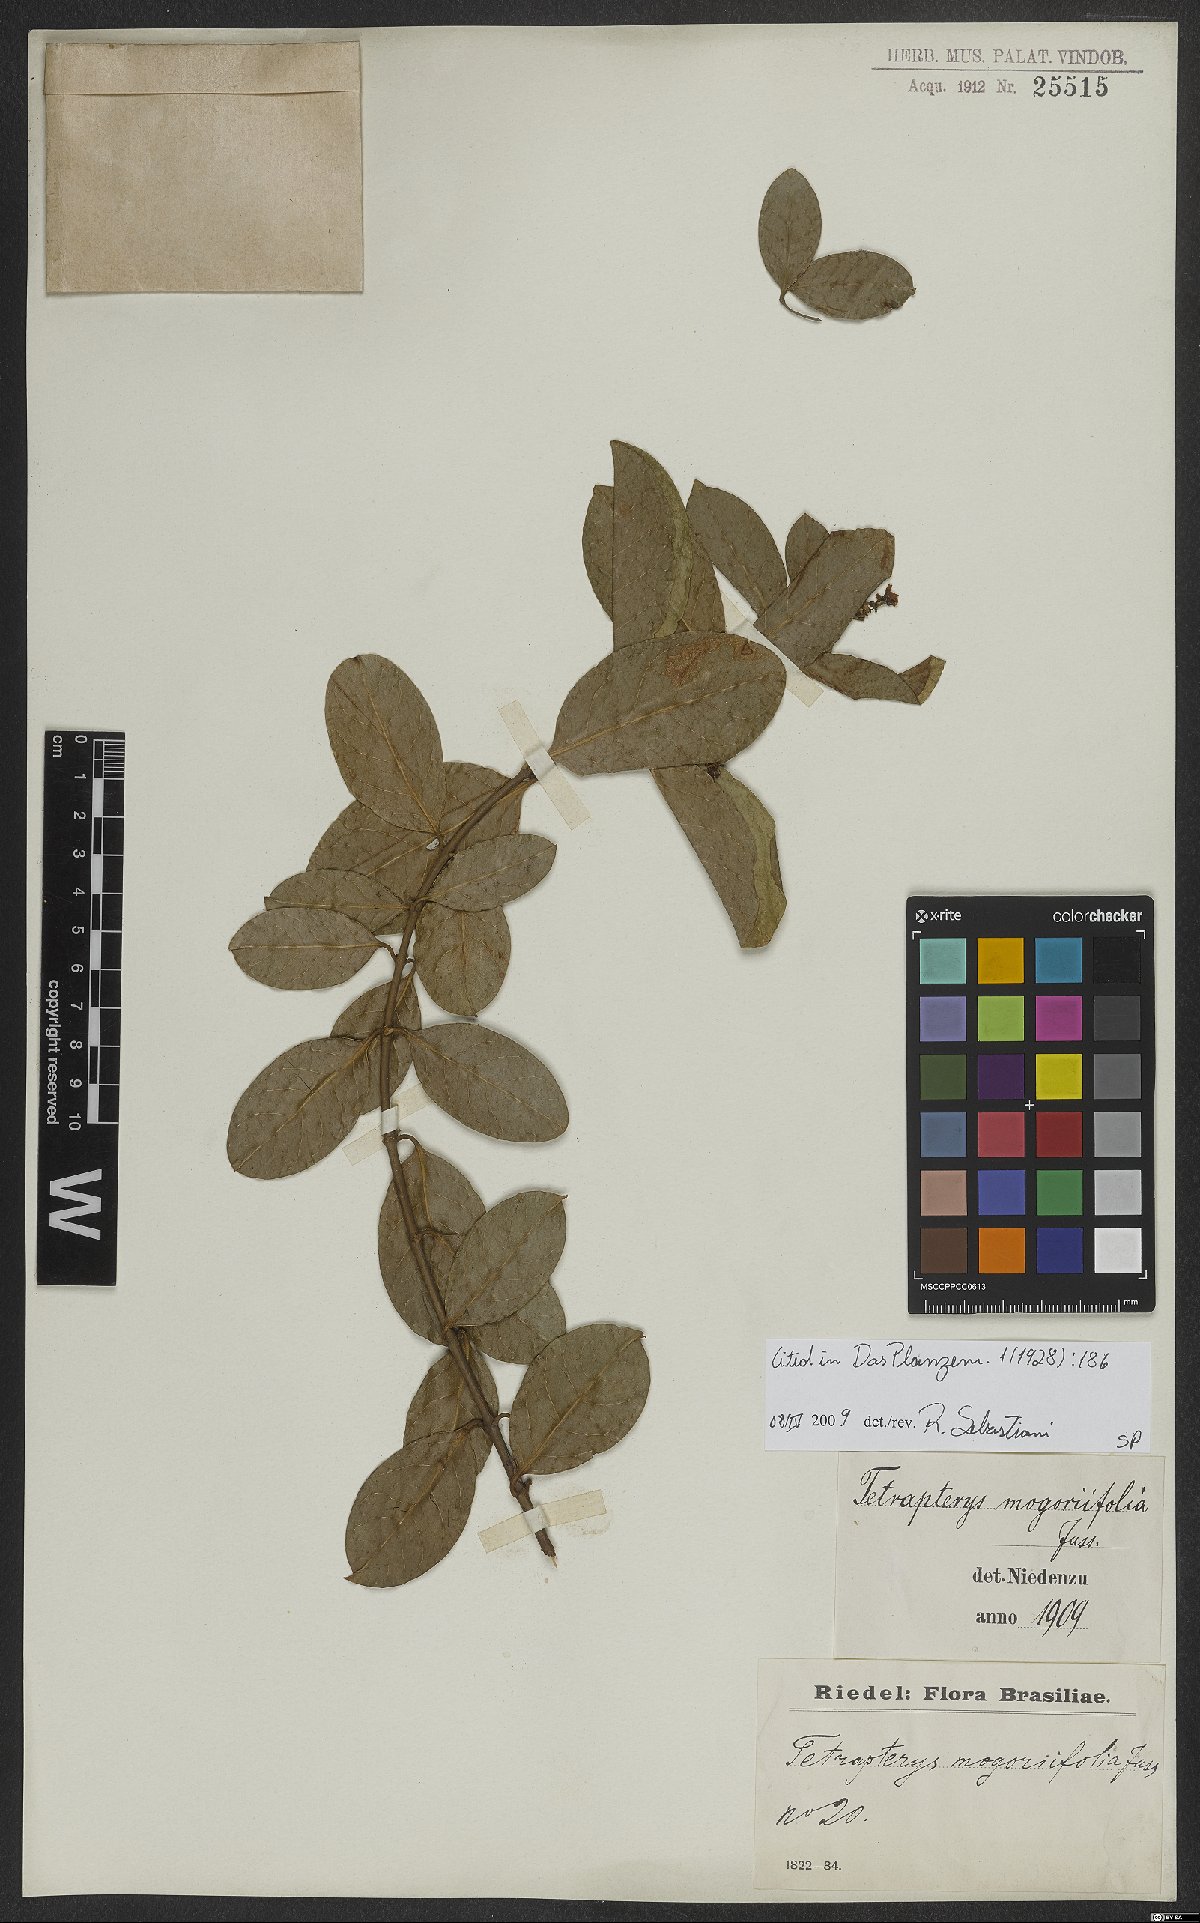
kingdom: Plantae
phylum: Tracheophyta
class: Magnoliopsida
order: Malpighiales
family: Malpighiaceae
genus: Niedenzuella
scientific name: Niedenzuella mogoriifolia
